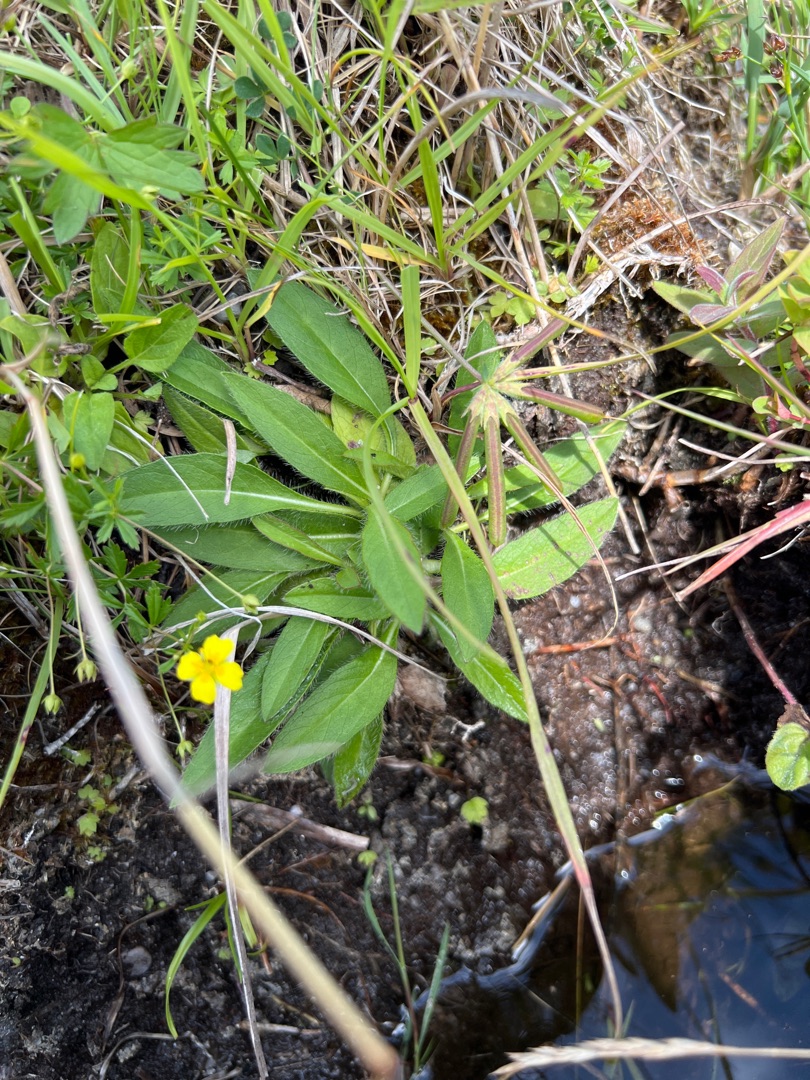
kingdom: Plantae
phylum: Tracheophyta
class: Magnoliopsida
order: Dipsacales
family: Caprifoliaceae
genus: Succisa
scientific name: Succisa pratensis
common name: Djævelsbid
